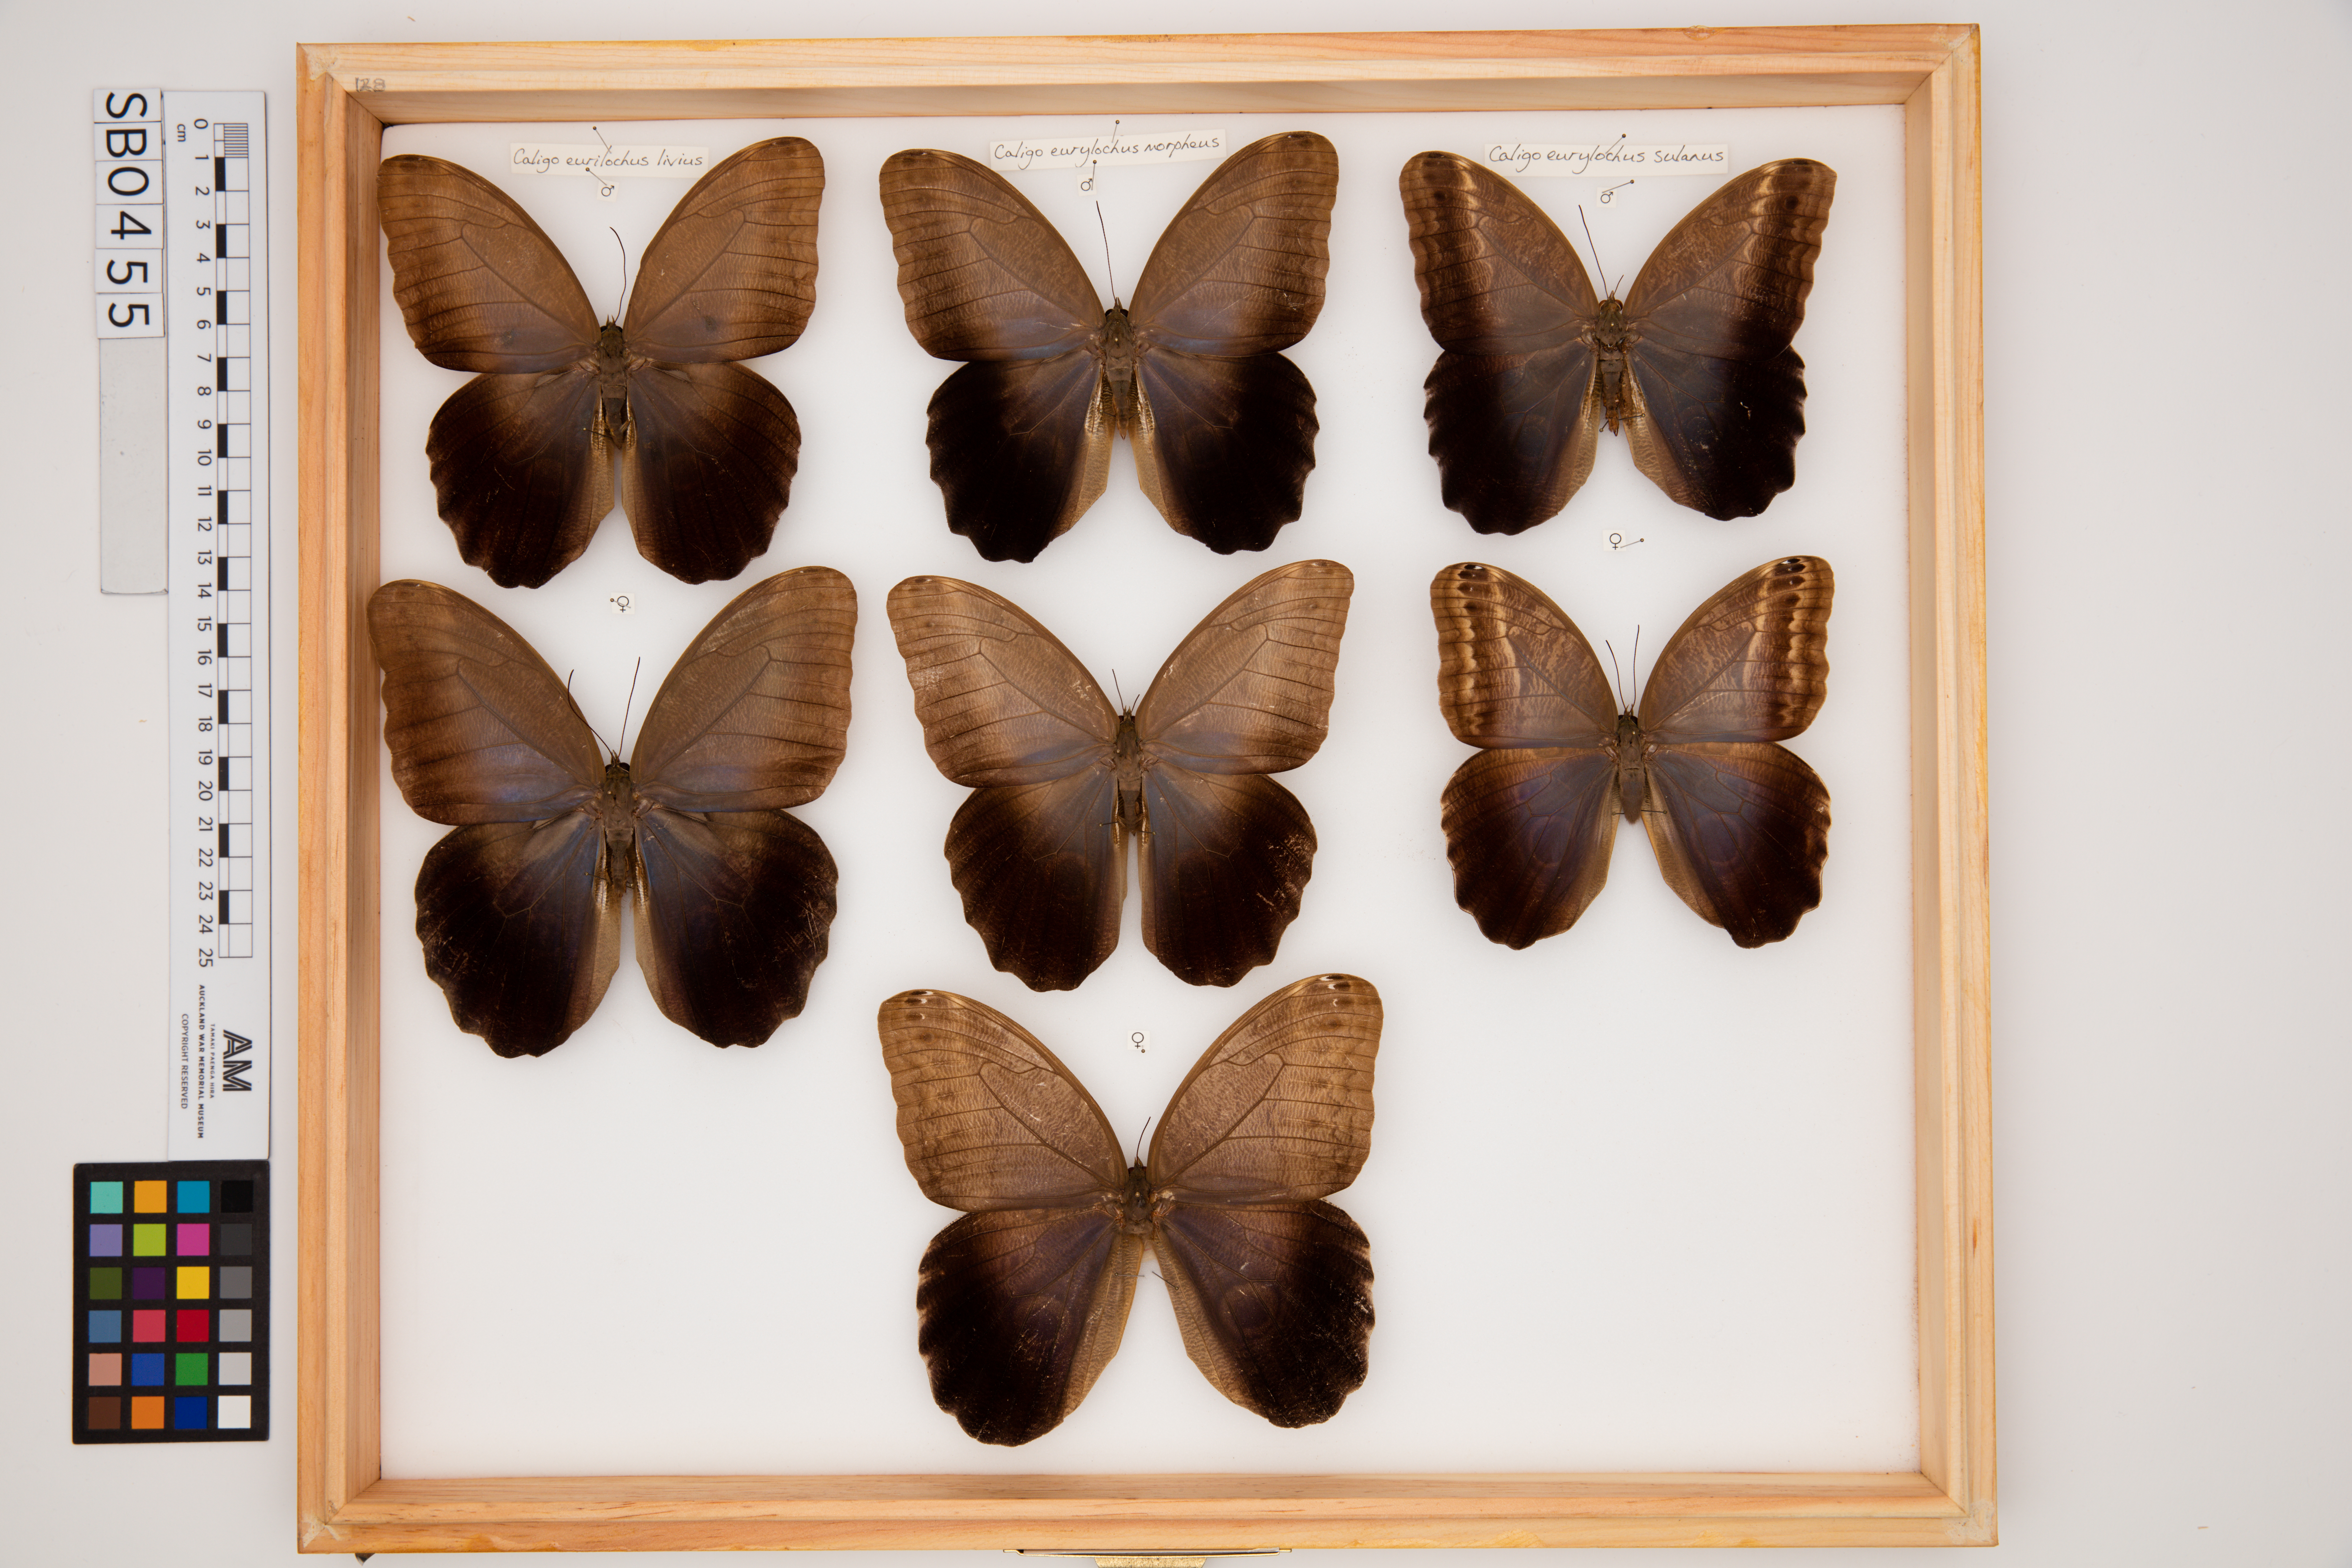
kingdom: Animalia
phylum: Arthropoda
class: Insecta
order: Lepidoptera
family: Nymphalidae
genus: Caligo
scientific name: Caligo eurilochus
